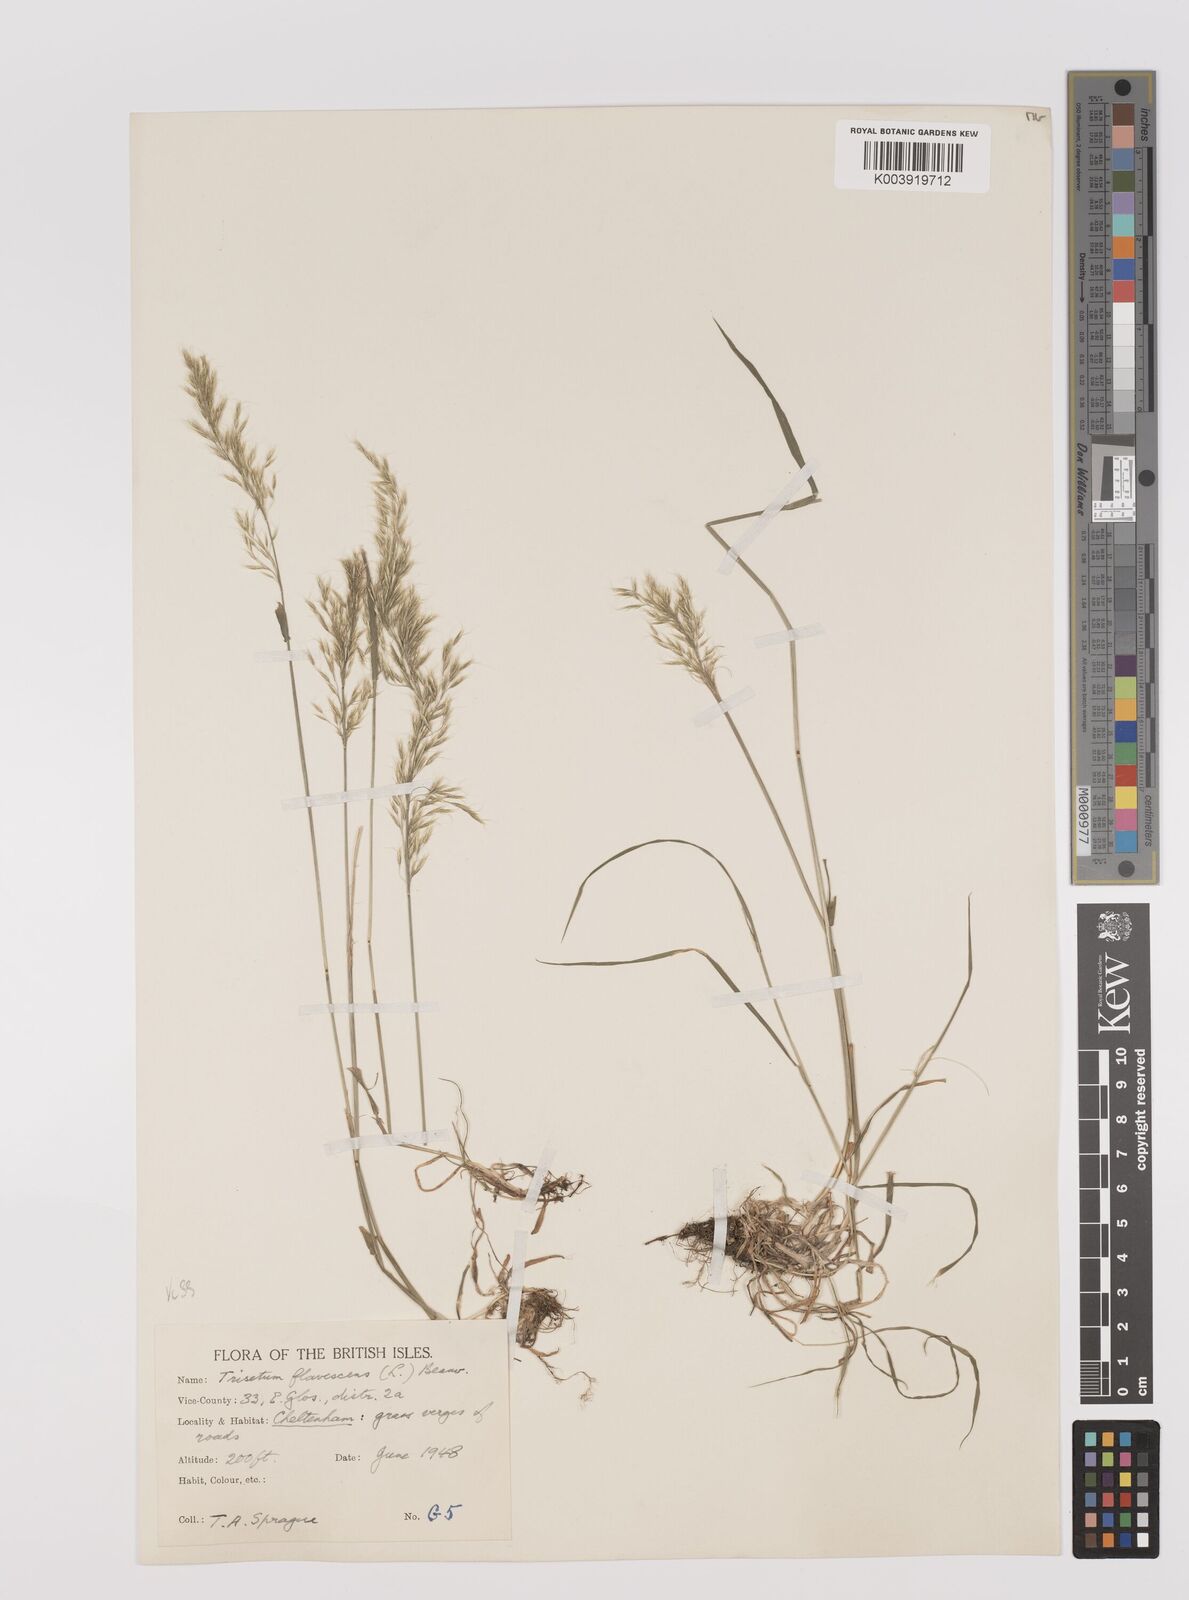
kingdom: Plantae
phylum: Tracheophyta
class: Liliopsida
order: Poales
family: Poaceae
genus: Trisetum
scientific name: Trisetum flavescens
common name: Yellow oat-grass
